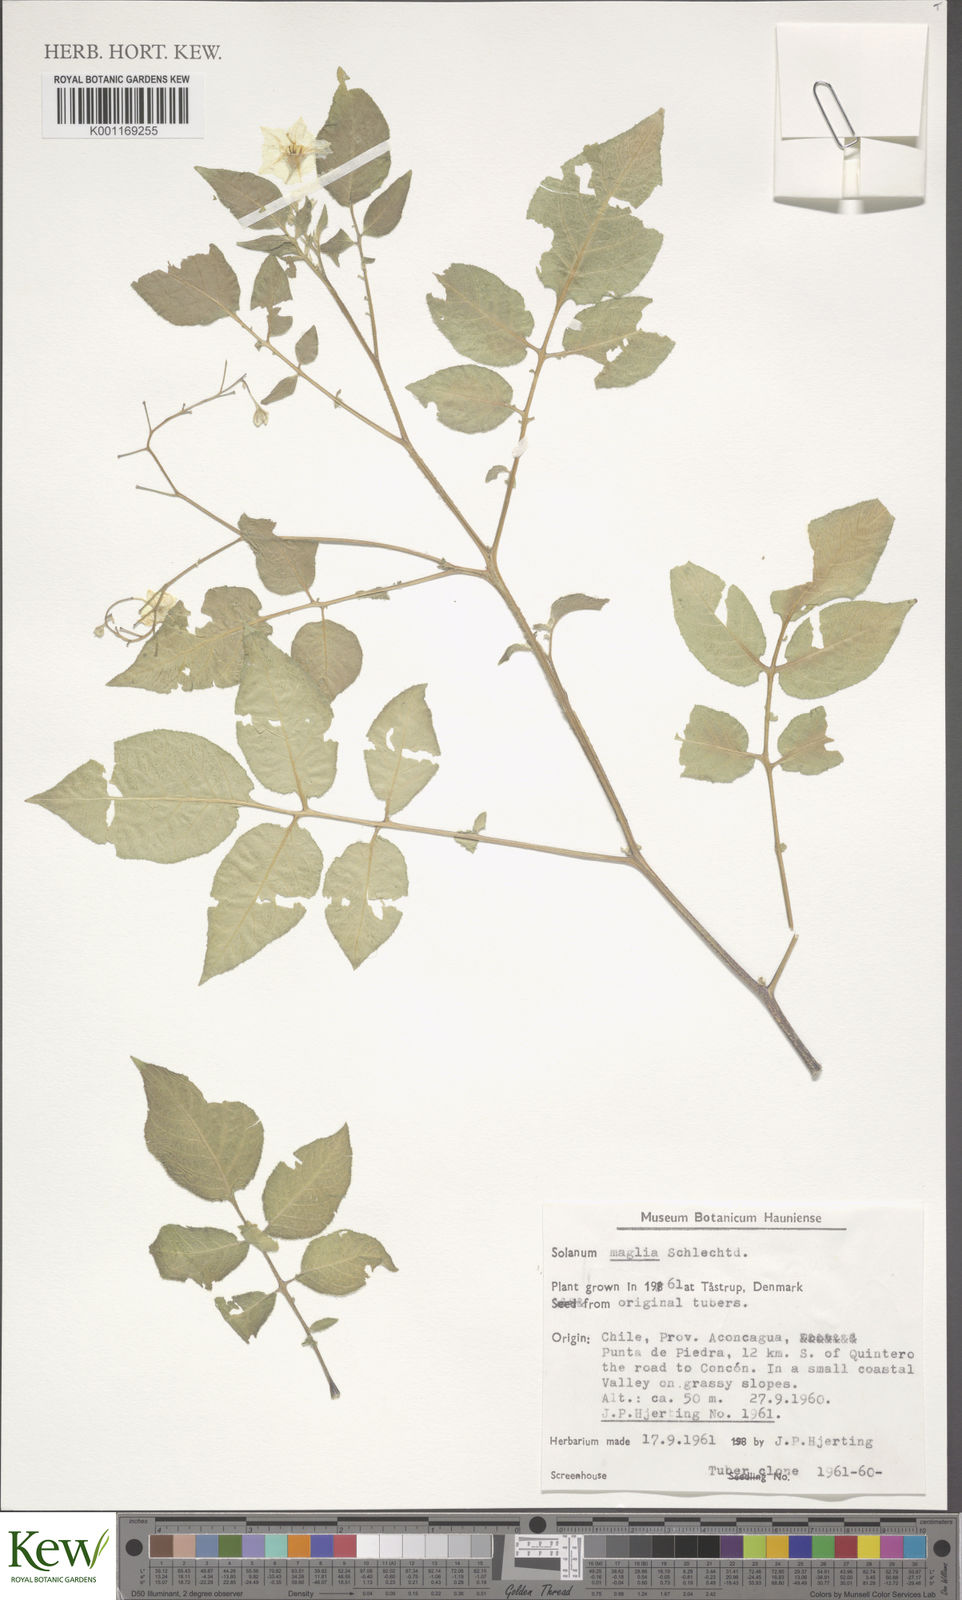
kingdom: Plantae
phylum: Tracheophyta
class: Magnoliopsida
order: Solanales
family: Solanaceae
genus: Solanum
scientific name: Solanum maglia
